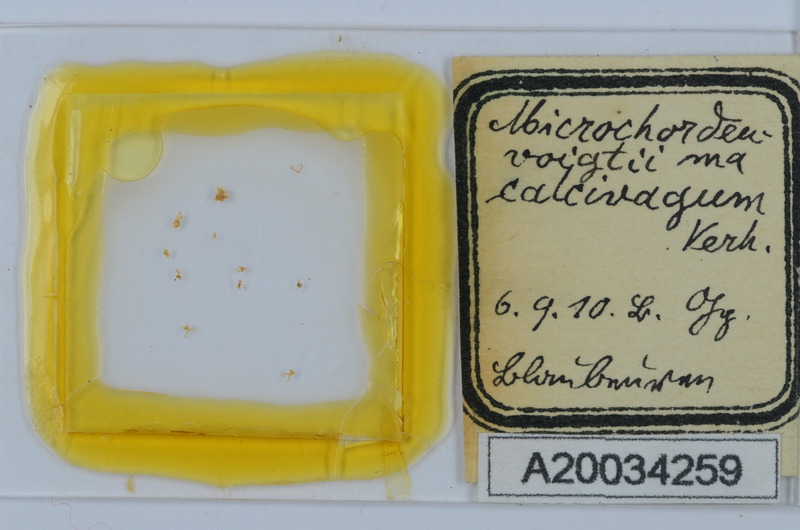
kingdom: Animalia
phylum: Arthropoda
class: Diplopoda
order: Chordeumatida
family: Chordeumatidae
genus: Melogona
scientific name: Melogona voigtii
